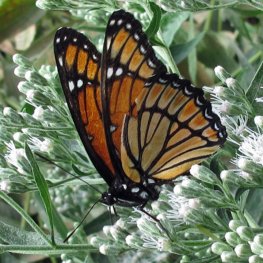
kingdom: Animalia
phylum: Arthropoda
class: Insecta
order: Lepidoptera
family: Nymphalidae
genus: Limenitis
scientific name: Limenitis archippus
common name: Viceroy
